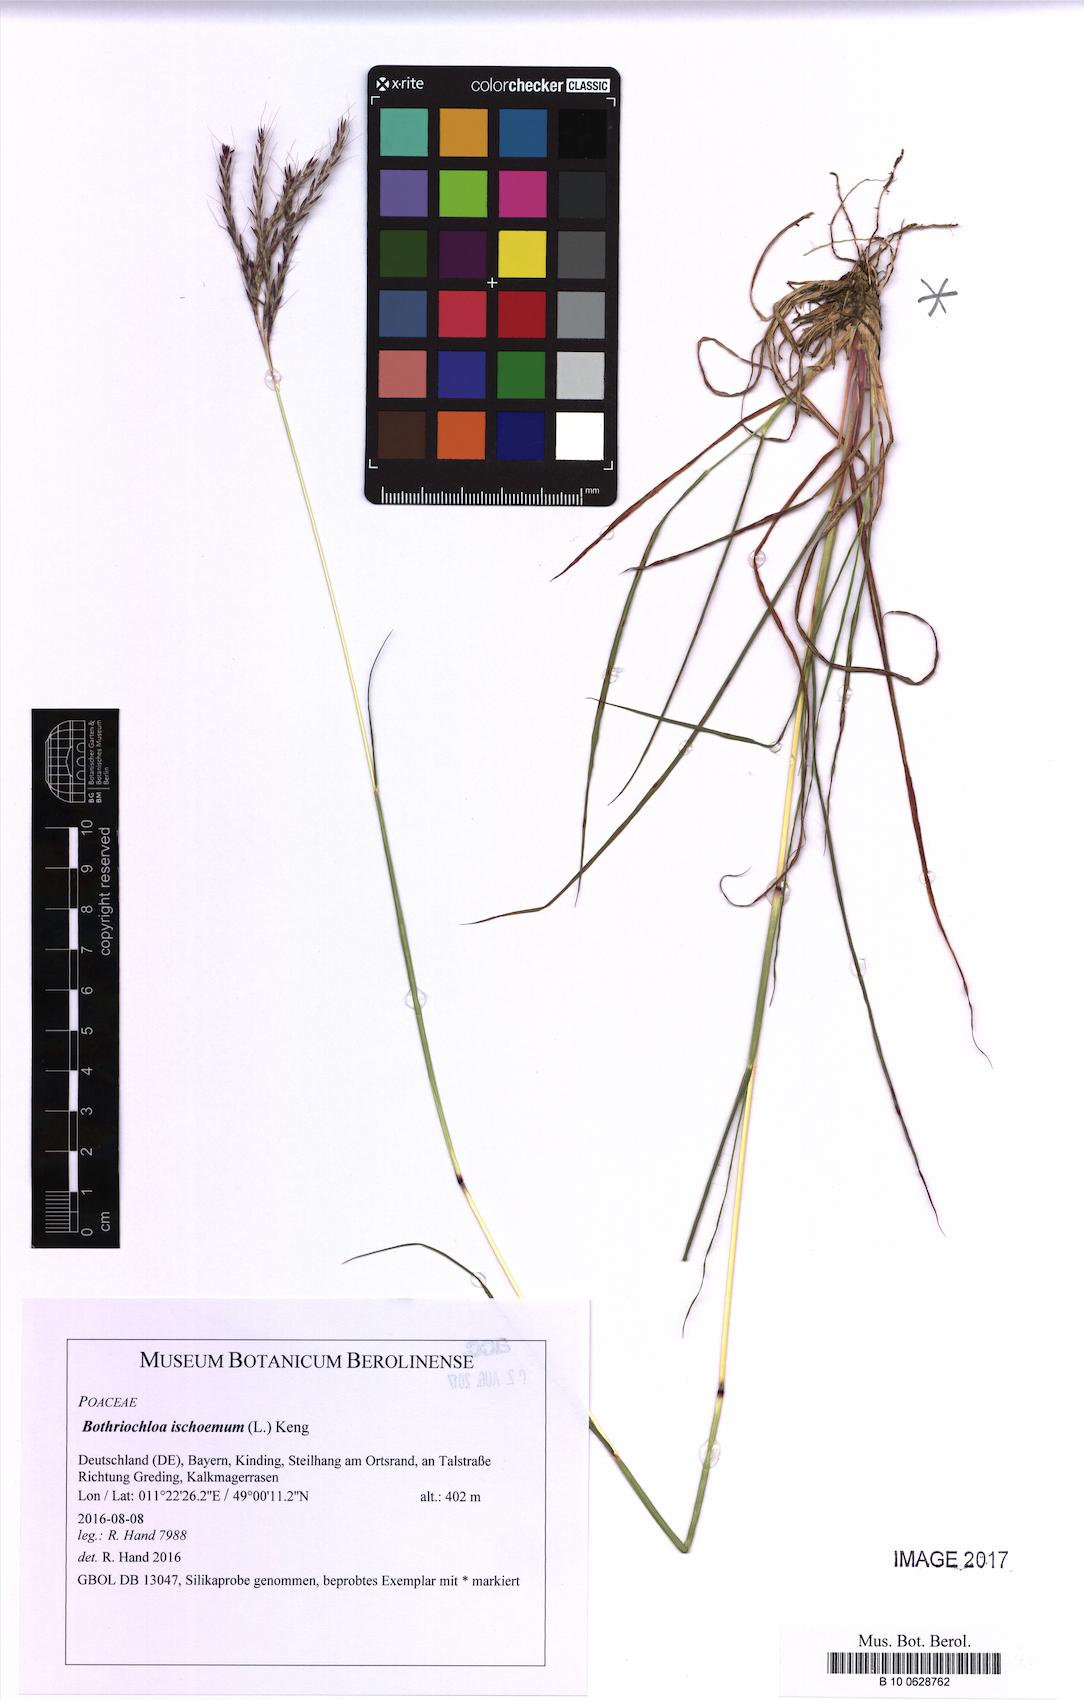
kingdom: Plantae
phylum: Tracheophyta
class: Liliopsida
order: Poales
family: Poaceae
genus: Bothriochloa
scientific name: Bothriochloa ischaemum
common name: Yellow bluestem
